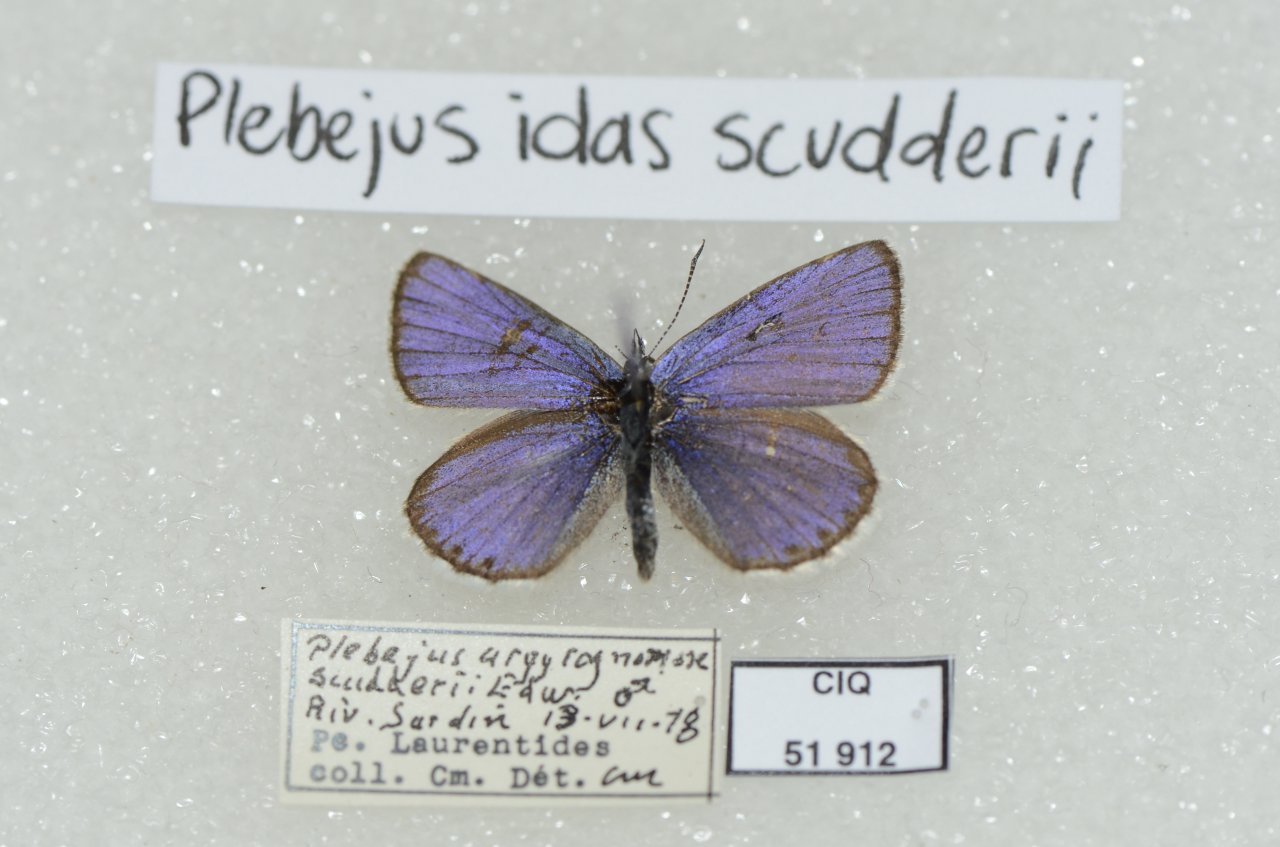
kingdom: Animalia
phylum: Arthropoda
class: Insecta
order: Lepidoptera
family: Lycaenidae
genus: Lycaeides
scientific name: Lycaeides idas
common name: Northern Blue
